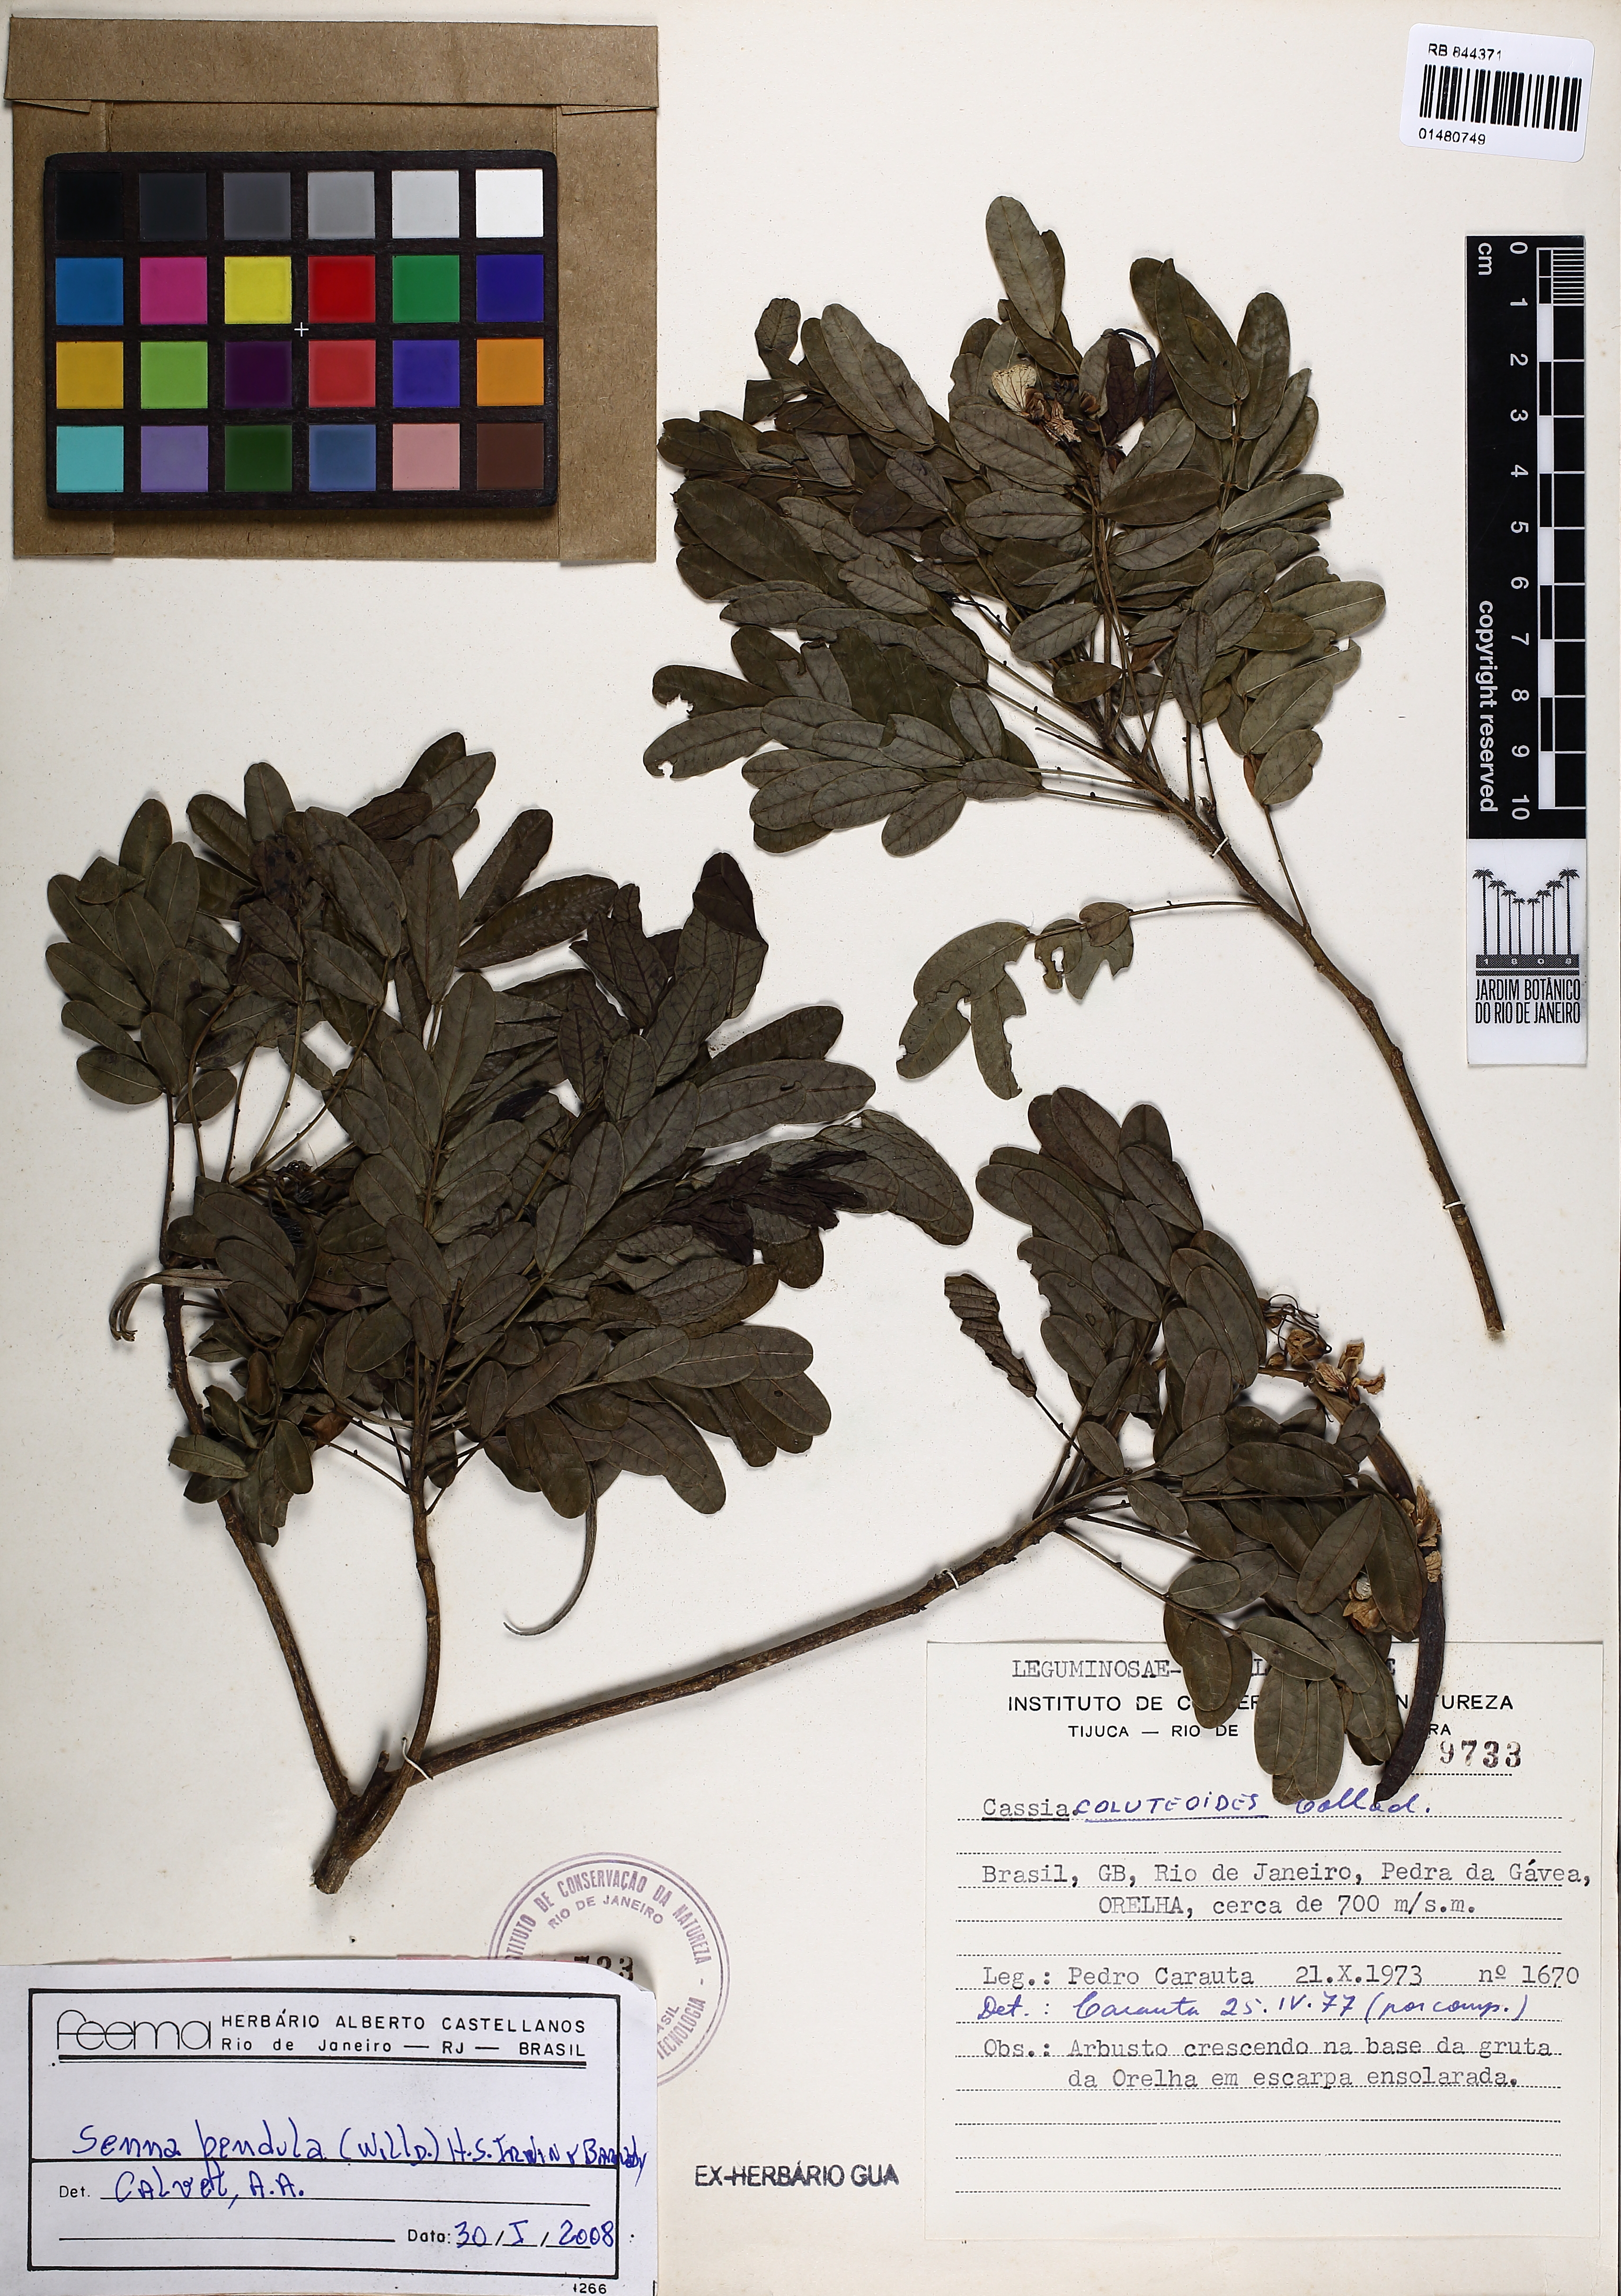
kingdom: Plantae
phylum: Tracheophyta
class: Magnoliopsida
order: Fabales
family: Fabaceae
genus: Senna
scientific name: Senna pendula
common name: Easter cassia
